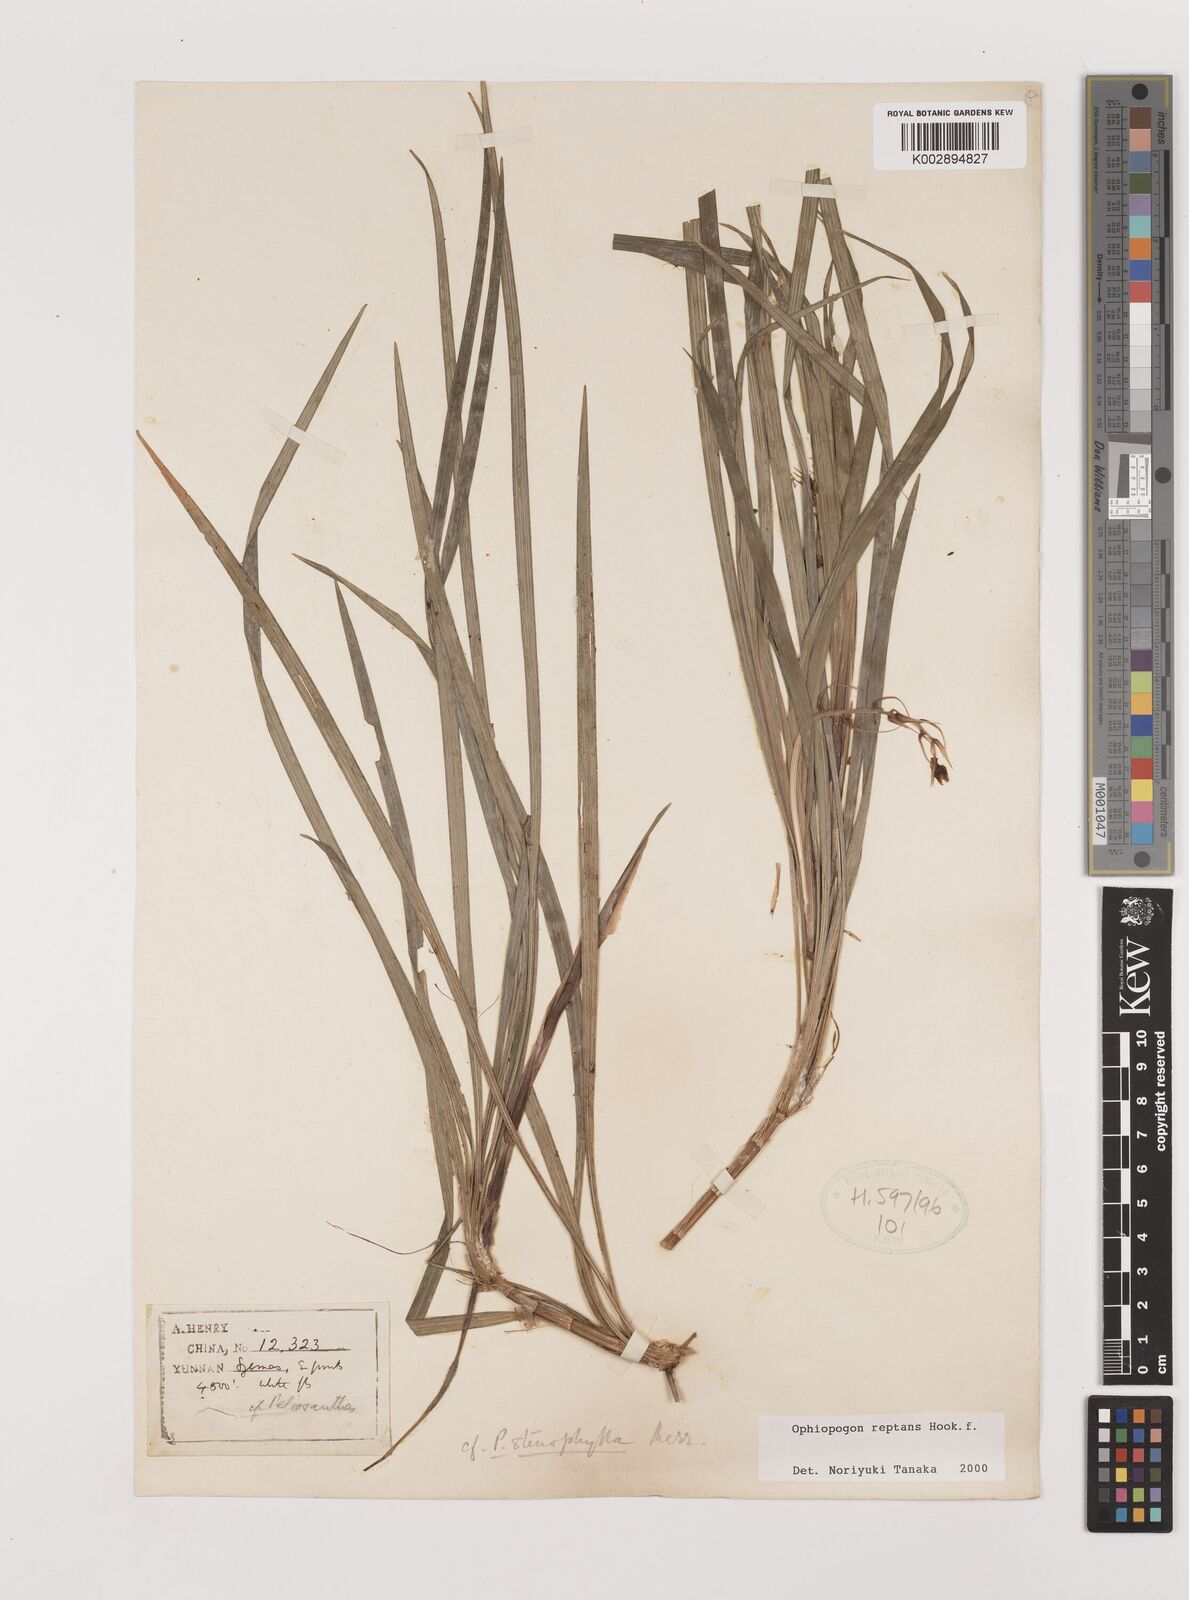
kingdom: Plantae
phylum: Tracheophyta
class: Liliopsida
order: Asparagales
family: Asparagaceae
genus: Ophiopogon
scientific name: Ophiopogon reptans
